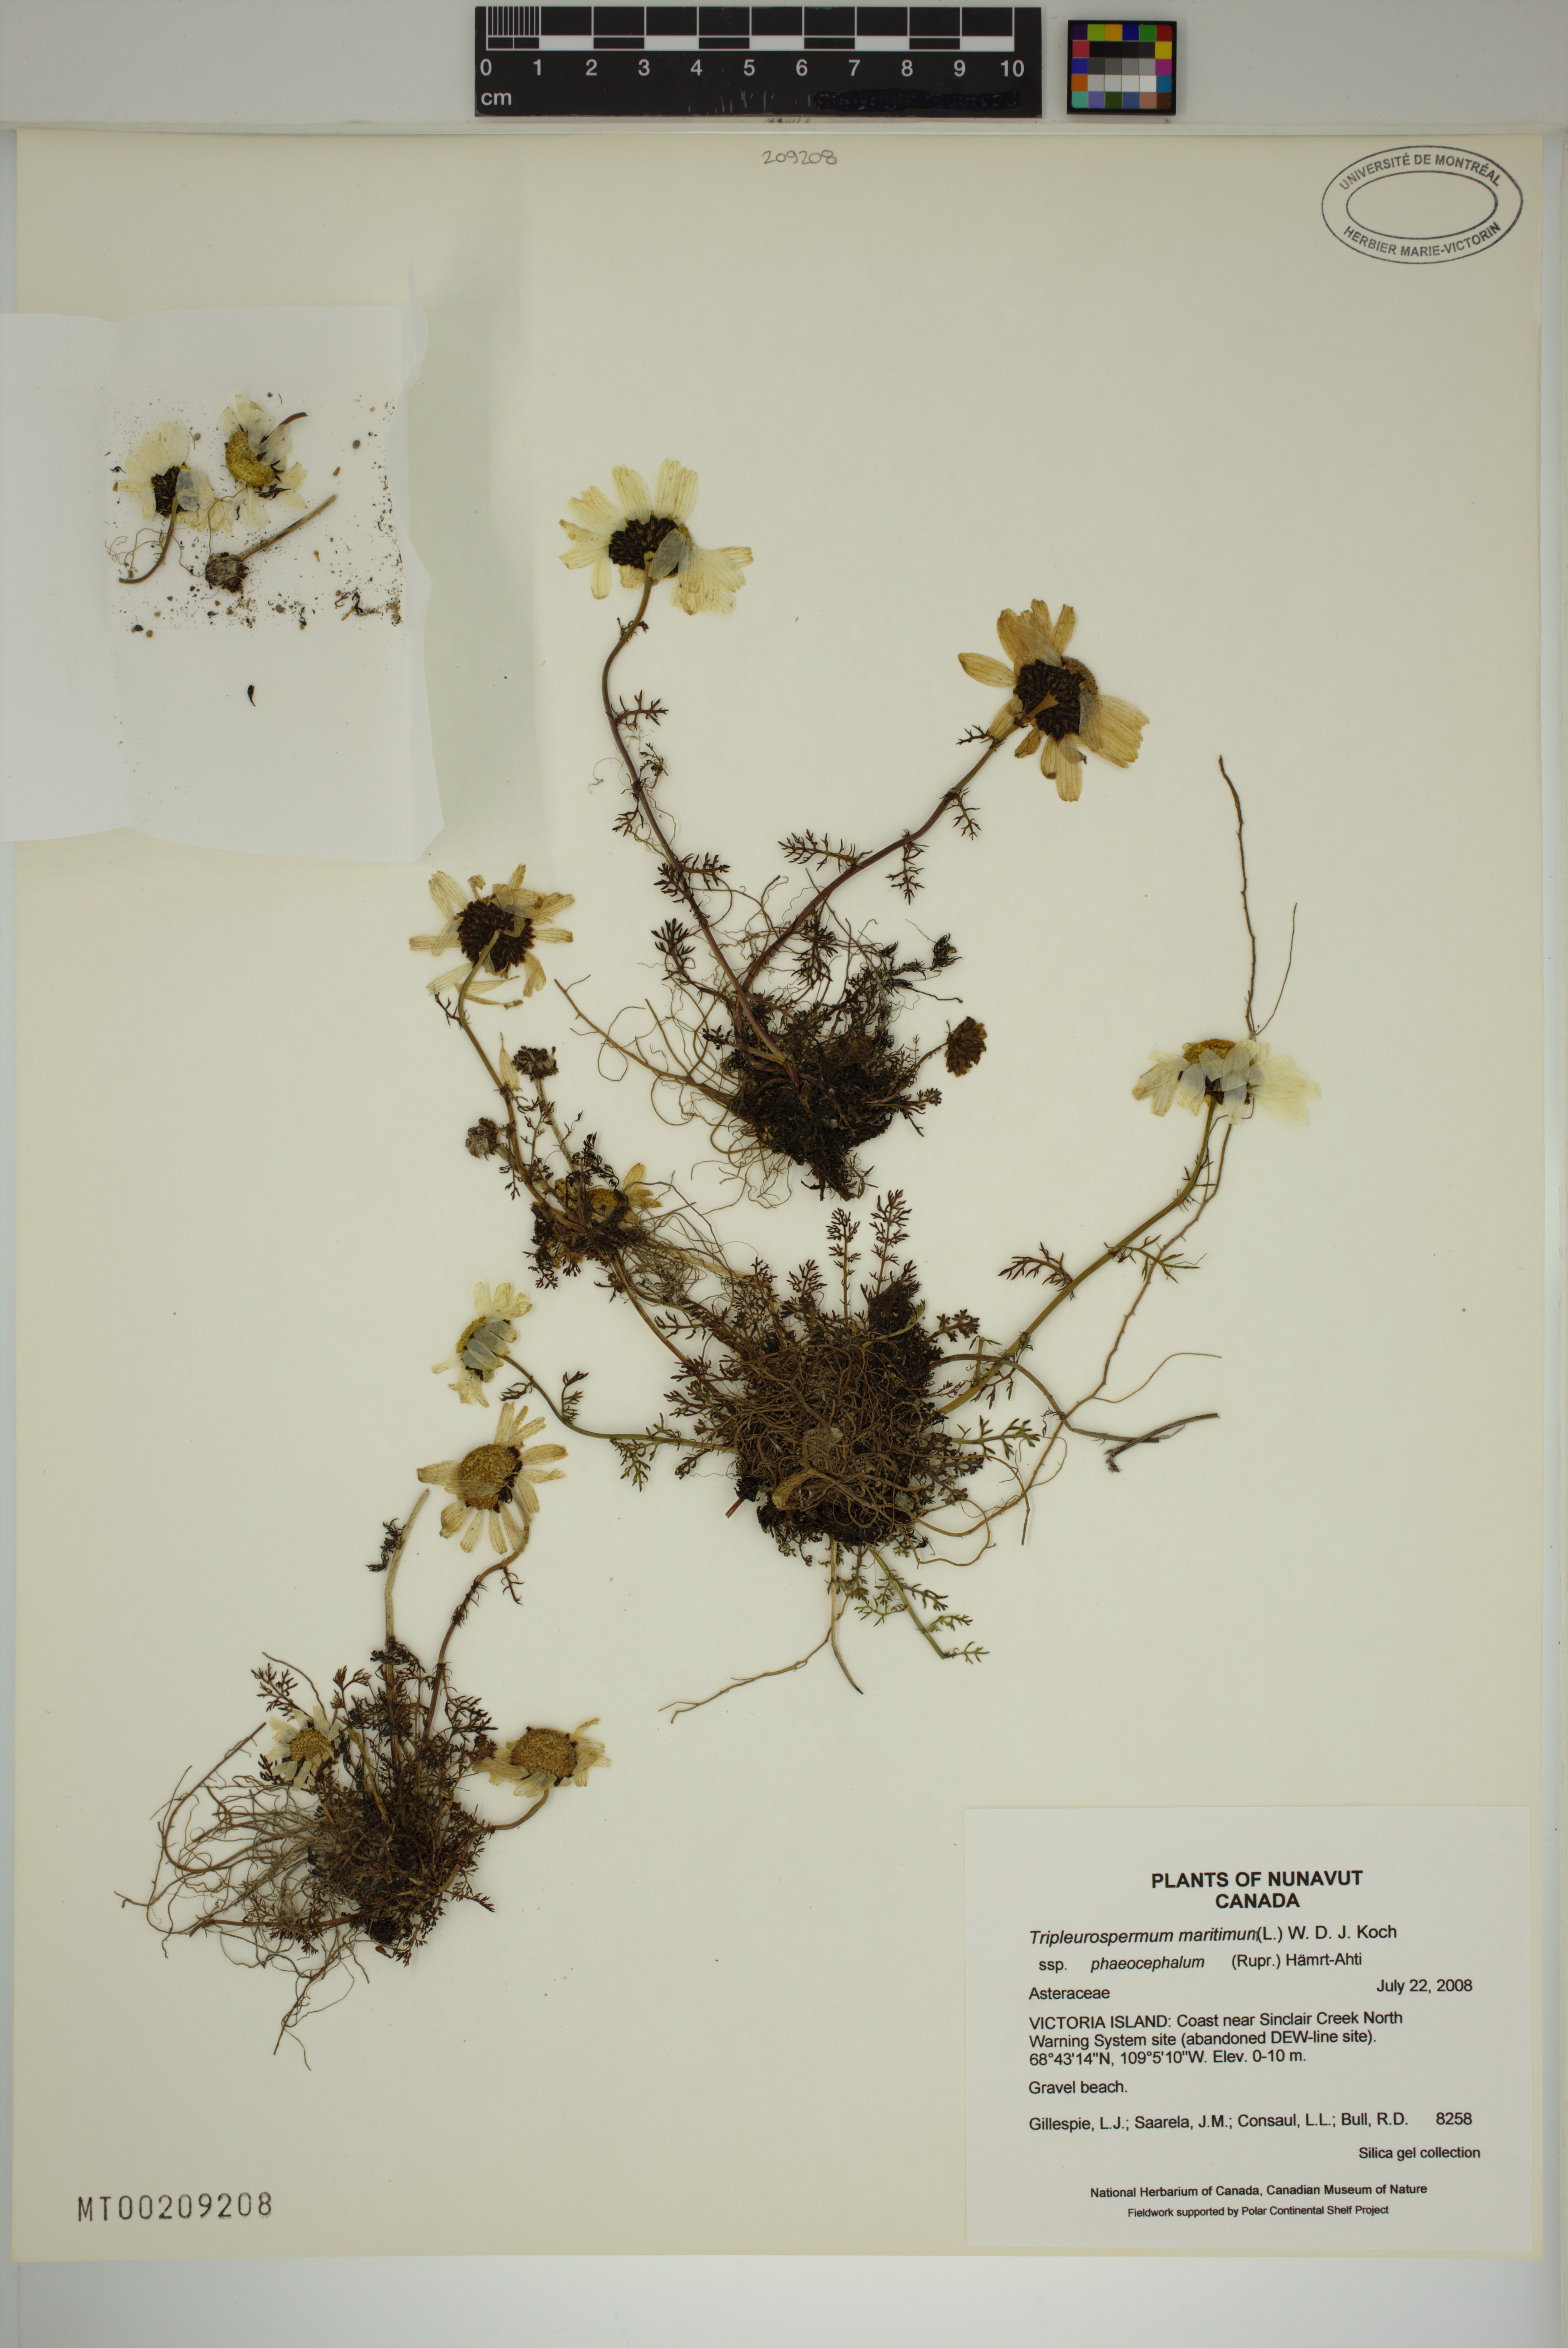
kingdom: Plantae
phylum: Tracheophyta
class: Magnoliopsida
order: Asterales
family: Asteraceae
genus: Tripleurospermum
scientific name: Tripleurospermum hookeri
